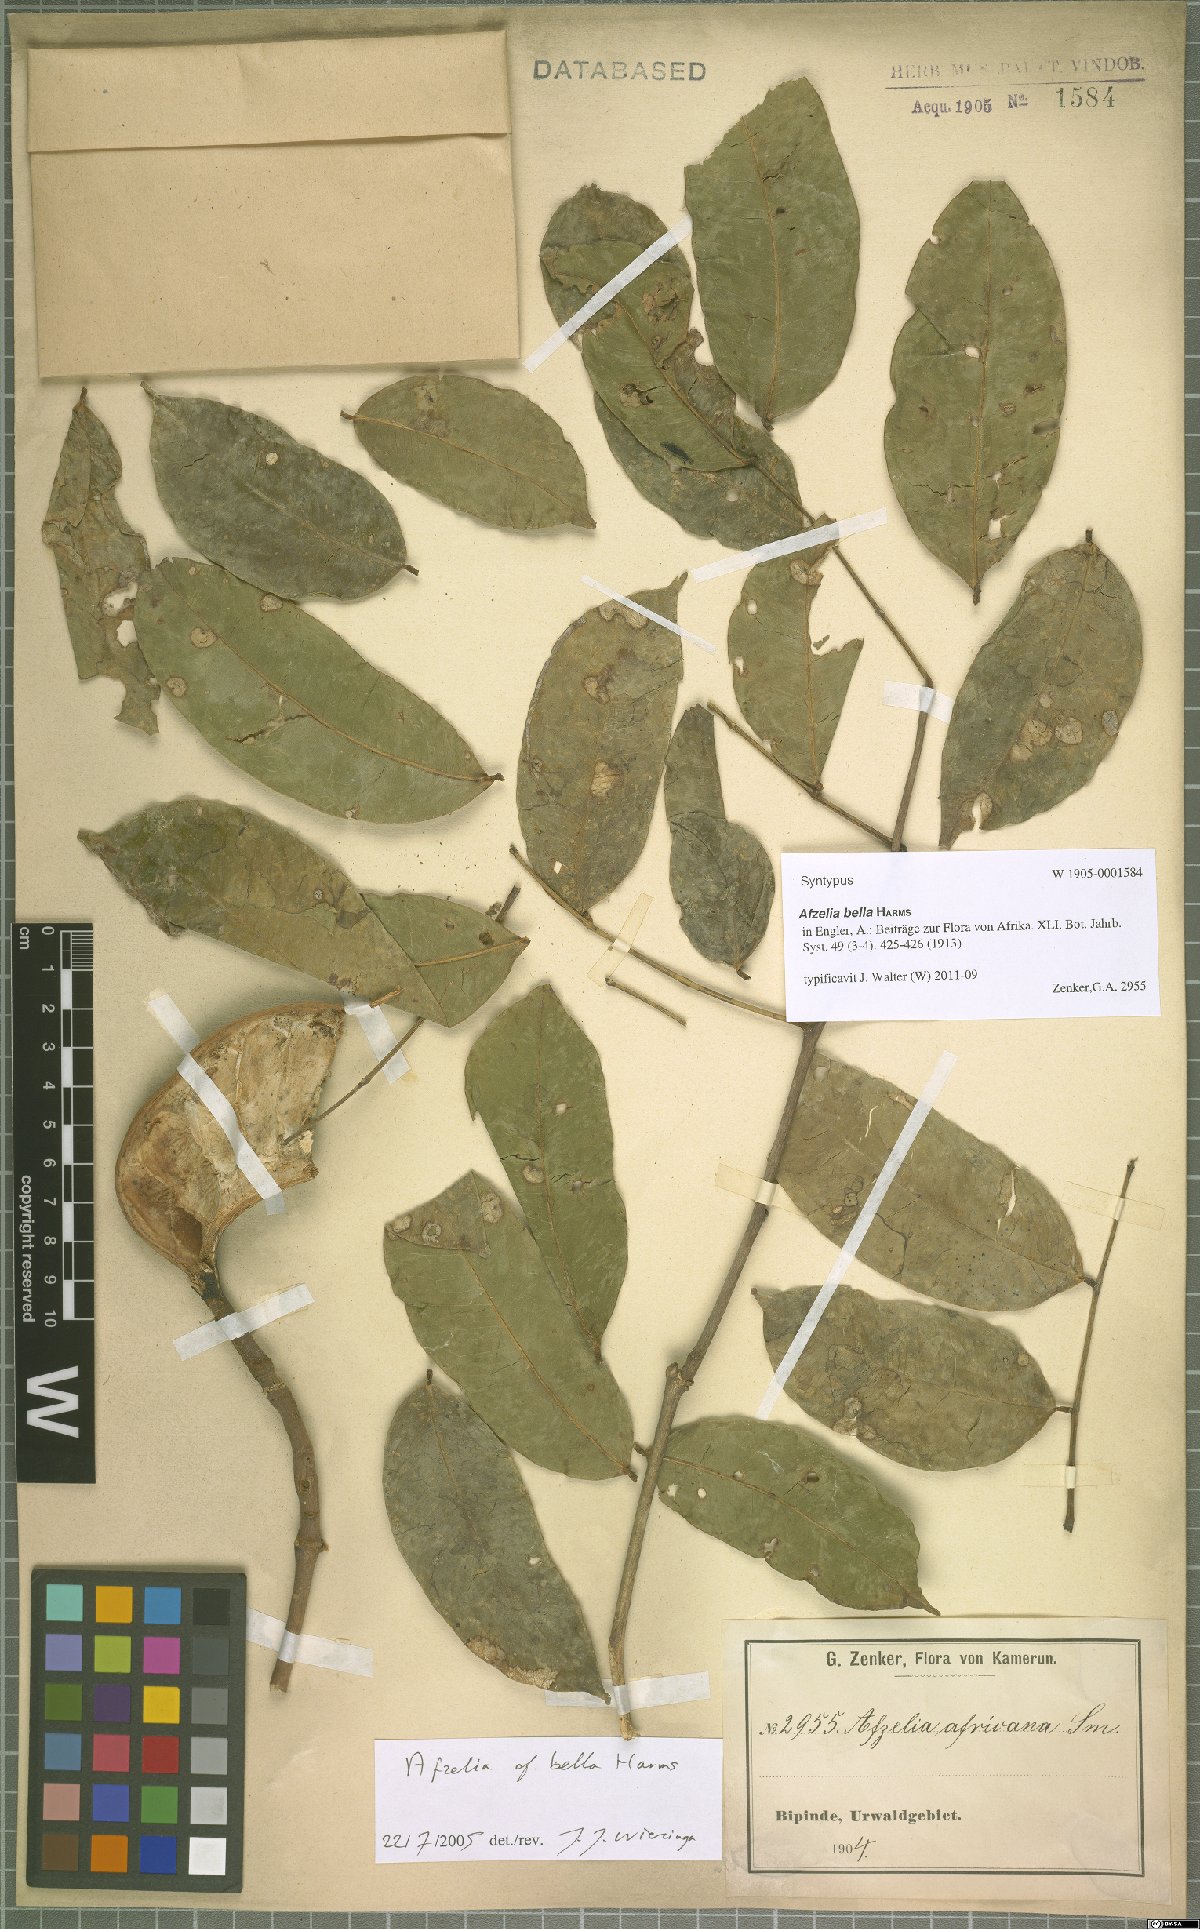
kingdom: Plantae
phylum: Tracheophyta
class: Magnoliopsida
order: Fabales
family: Fabaceae
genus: Afzelia
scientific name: Afzelia bella
